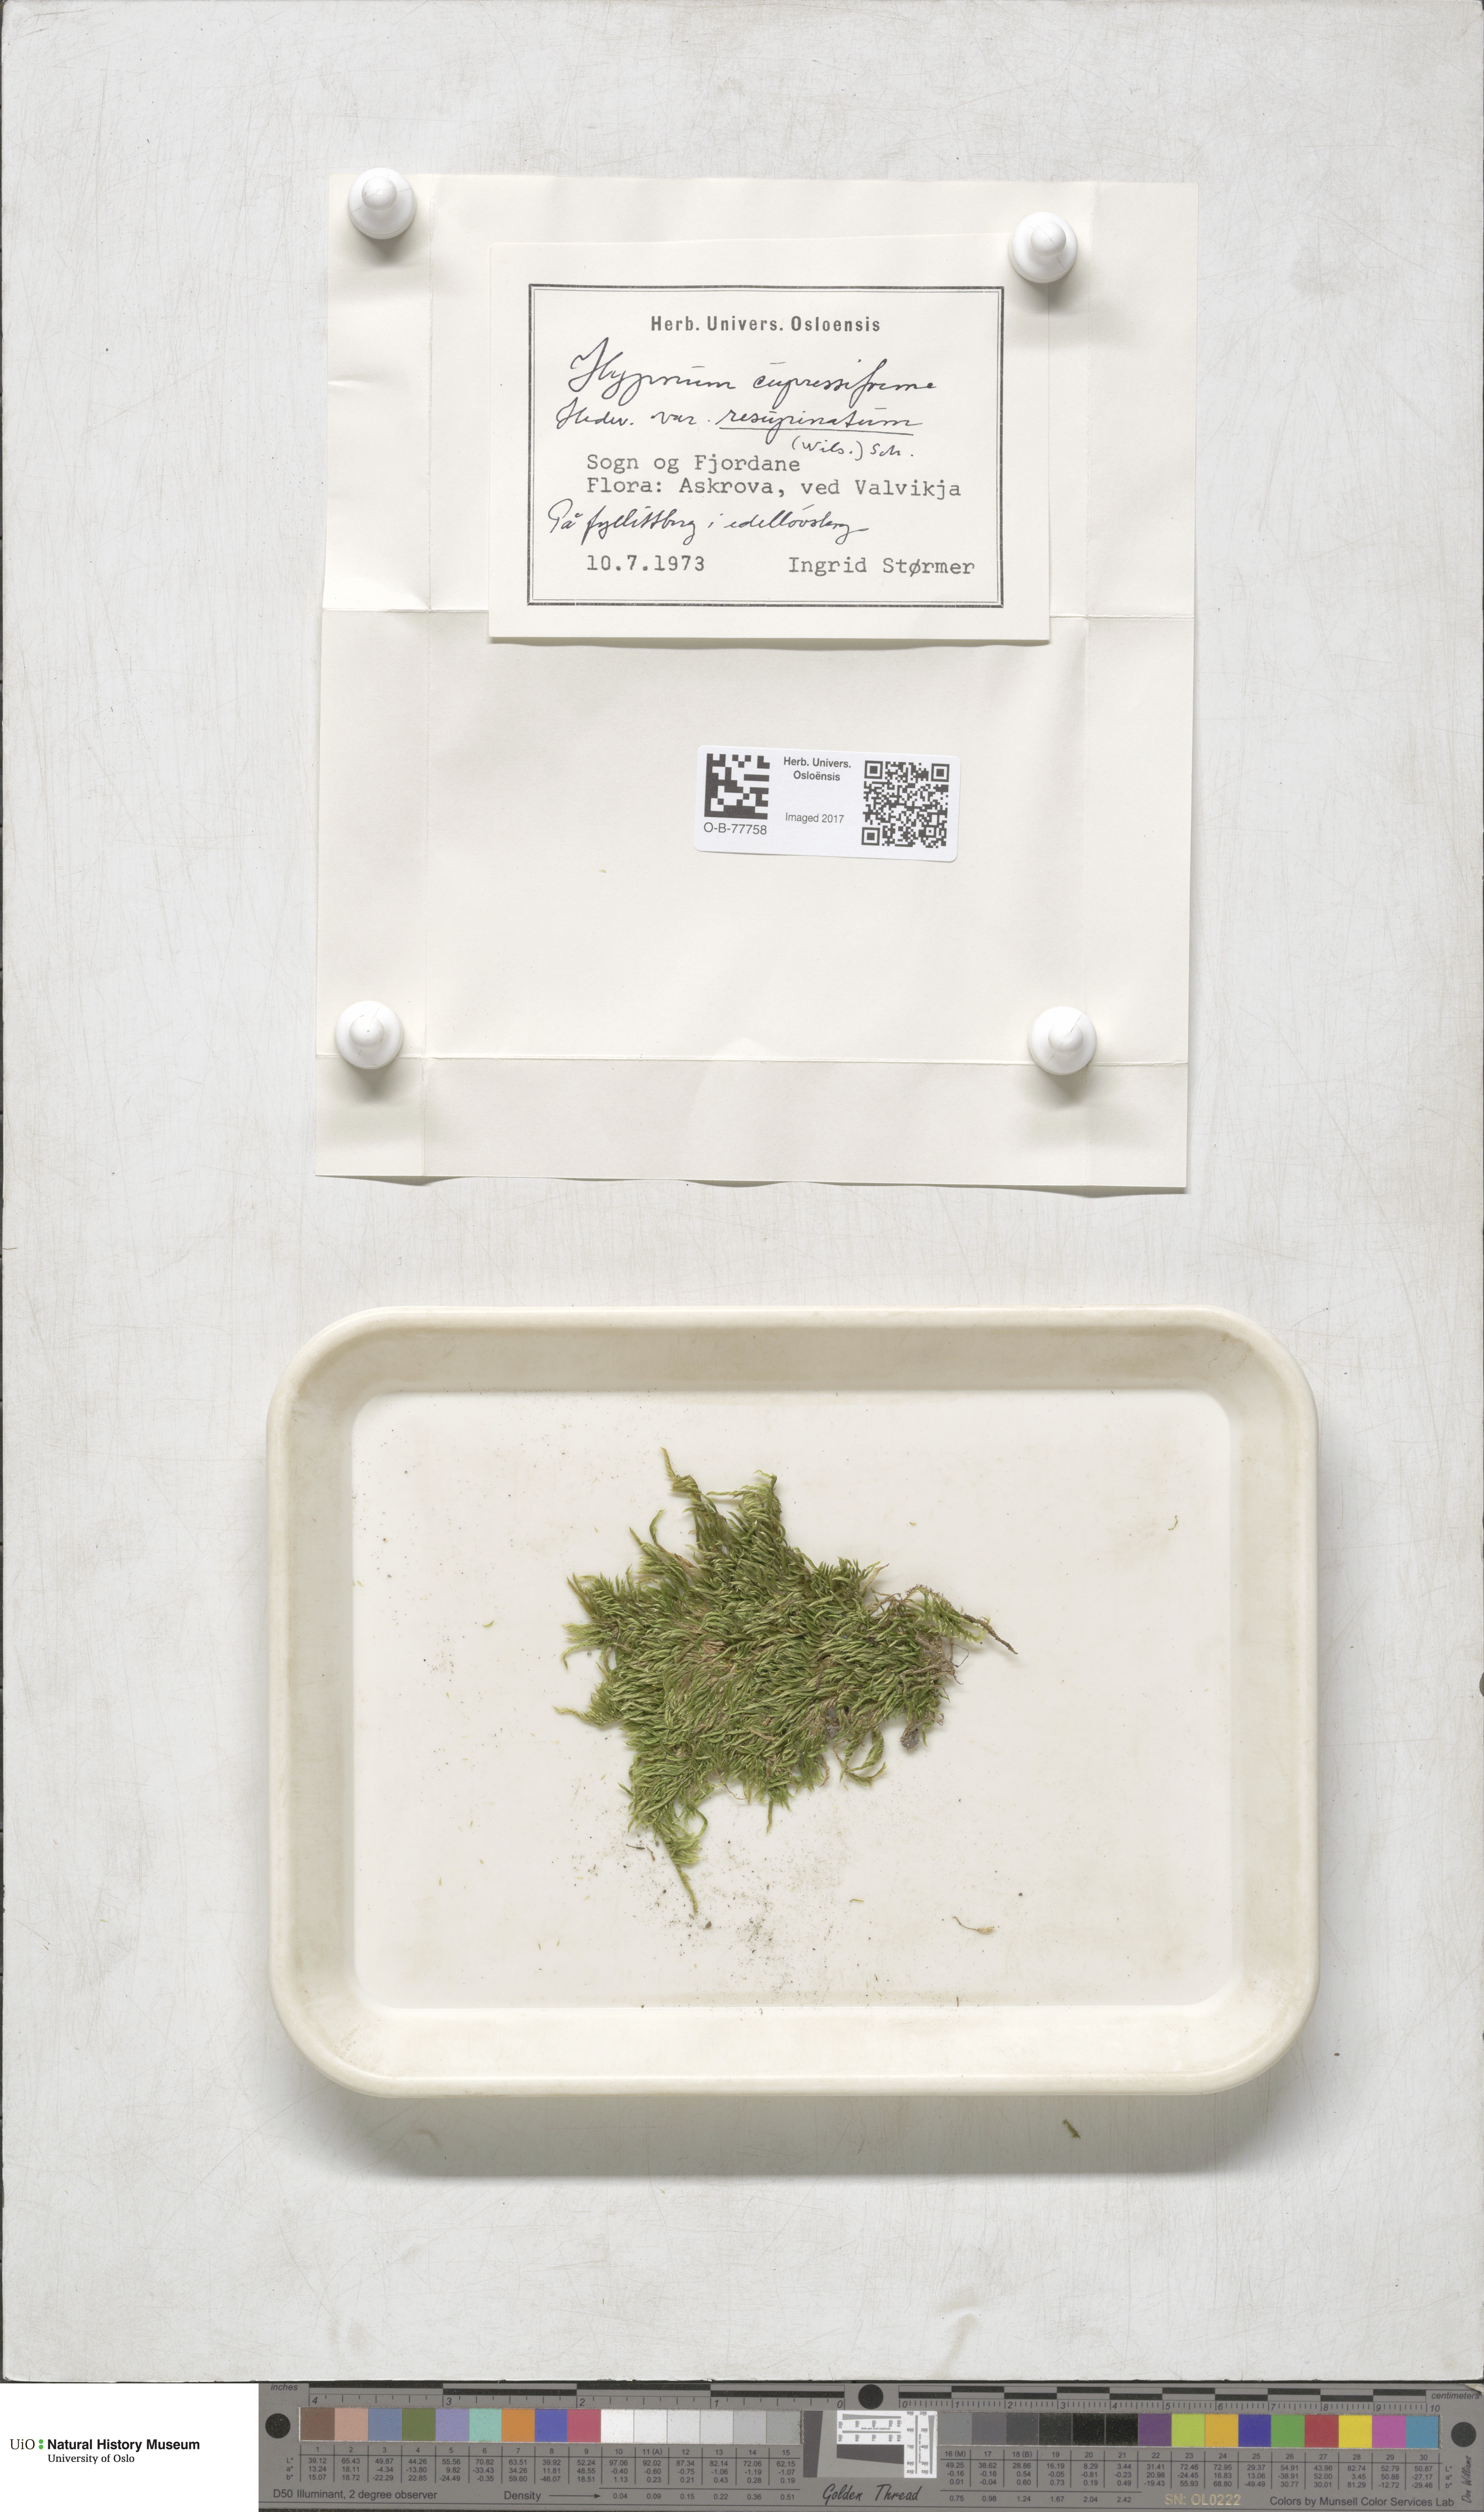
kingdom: Plantae
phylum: Bryophyta
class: Bryopsida
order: Hypnales
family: Hypnaceae
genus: Hypnum
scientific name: Hypnum cupressiforme
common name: Cypress-leaved plait-moss
